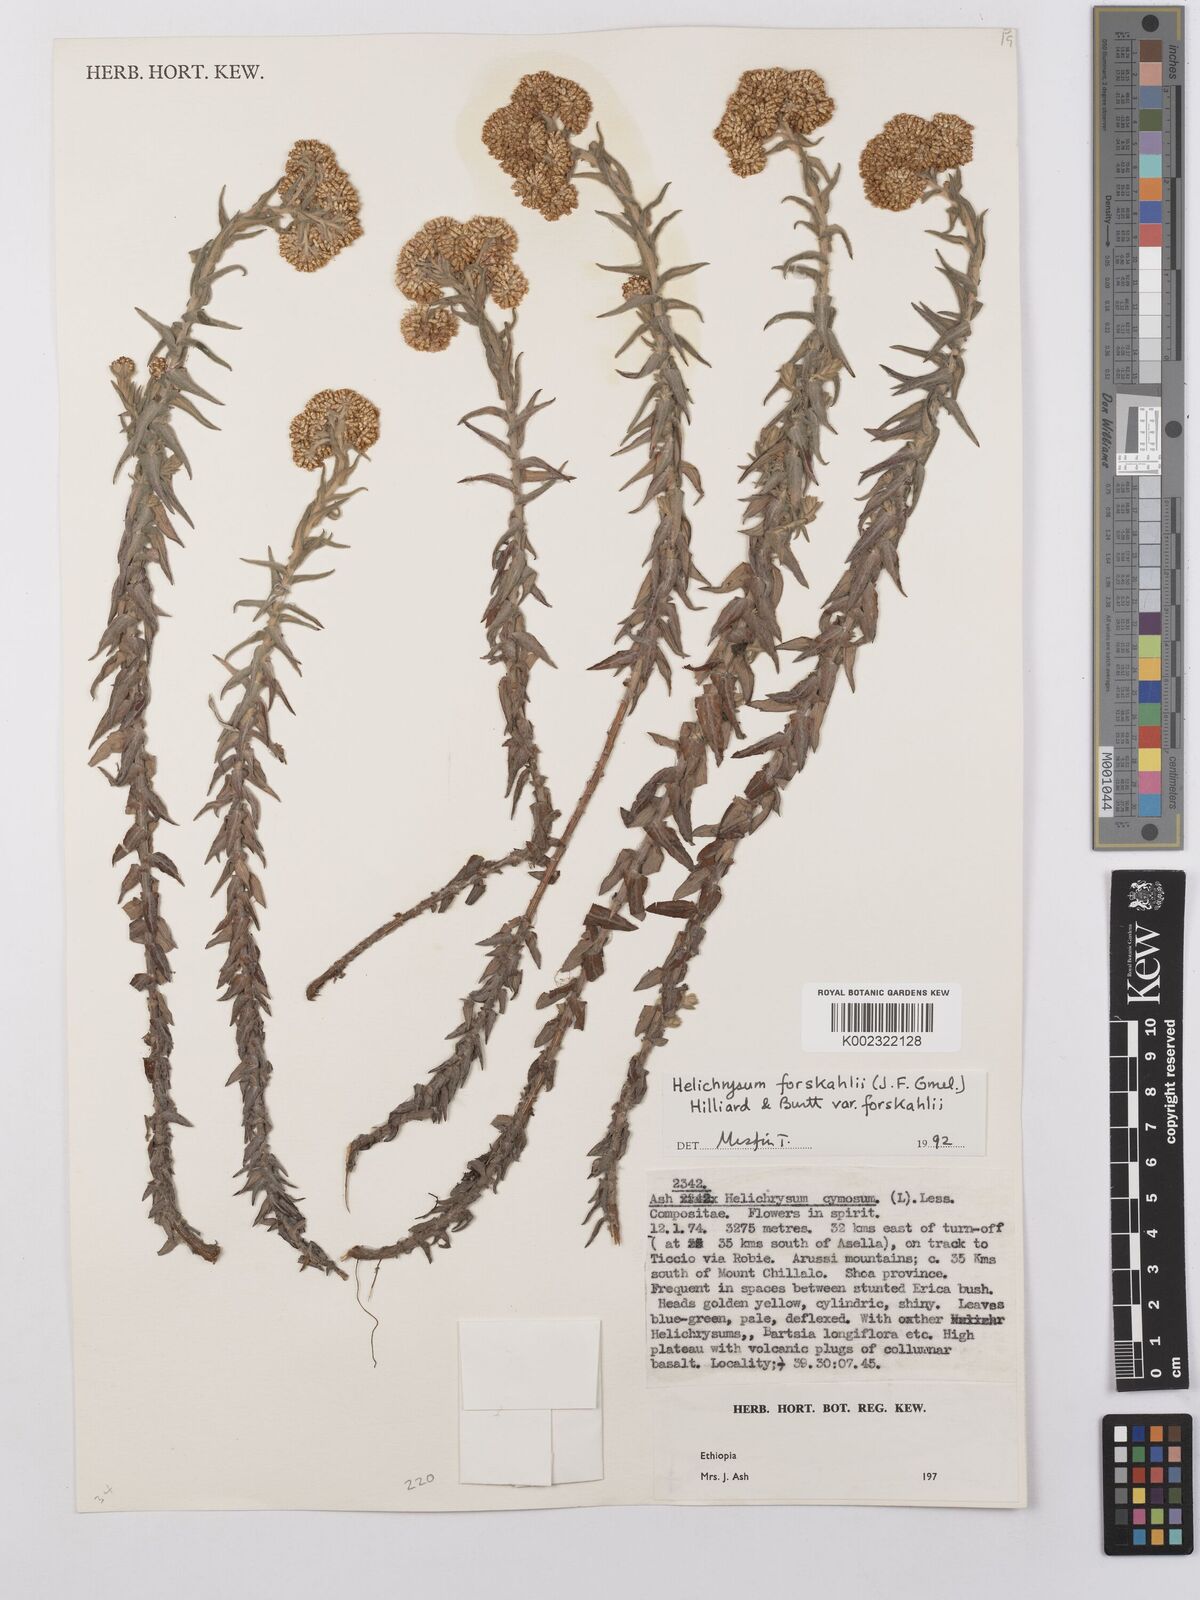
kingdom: Plantae
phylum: Tracheophyta
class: Magnoliopsida
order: Asterales
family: Asteraceae
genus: Helichrysum
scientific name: Helichrysum forskahlii
